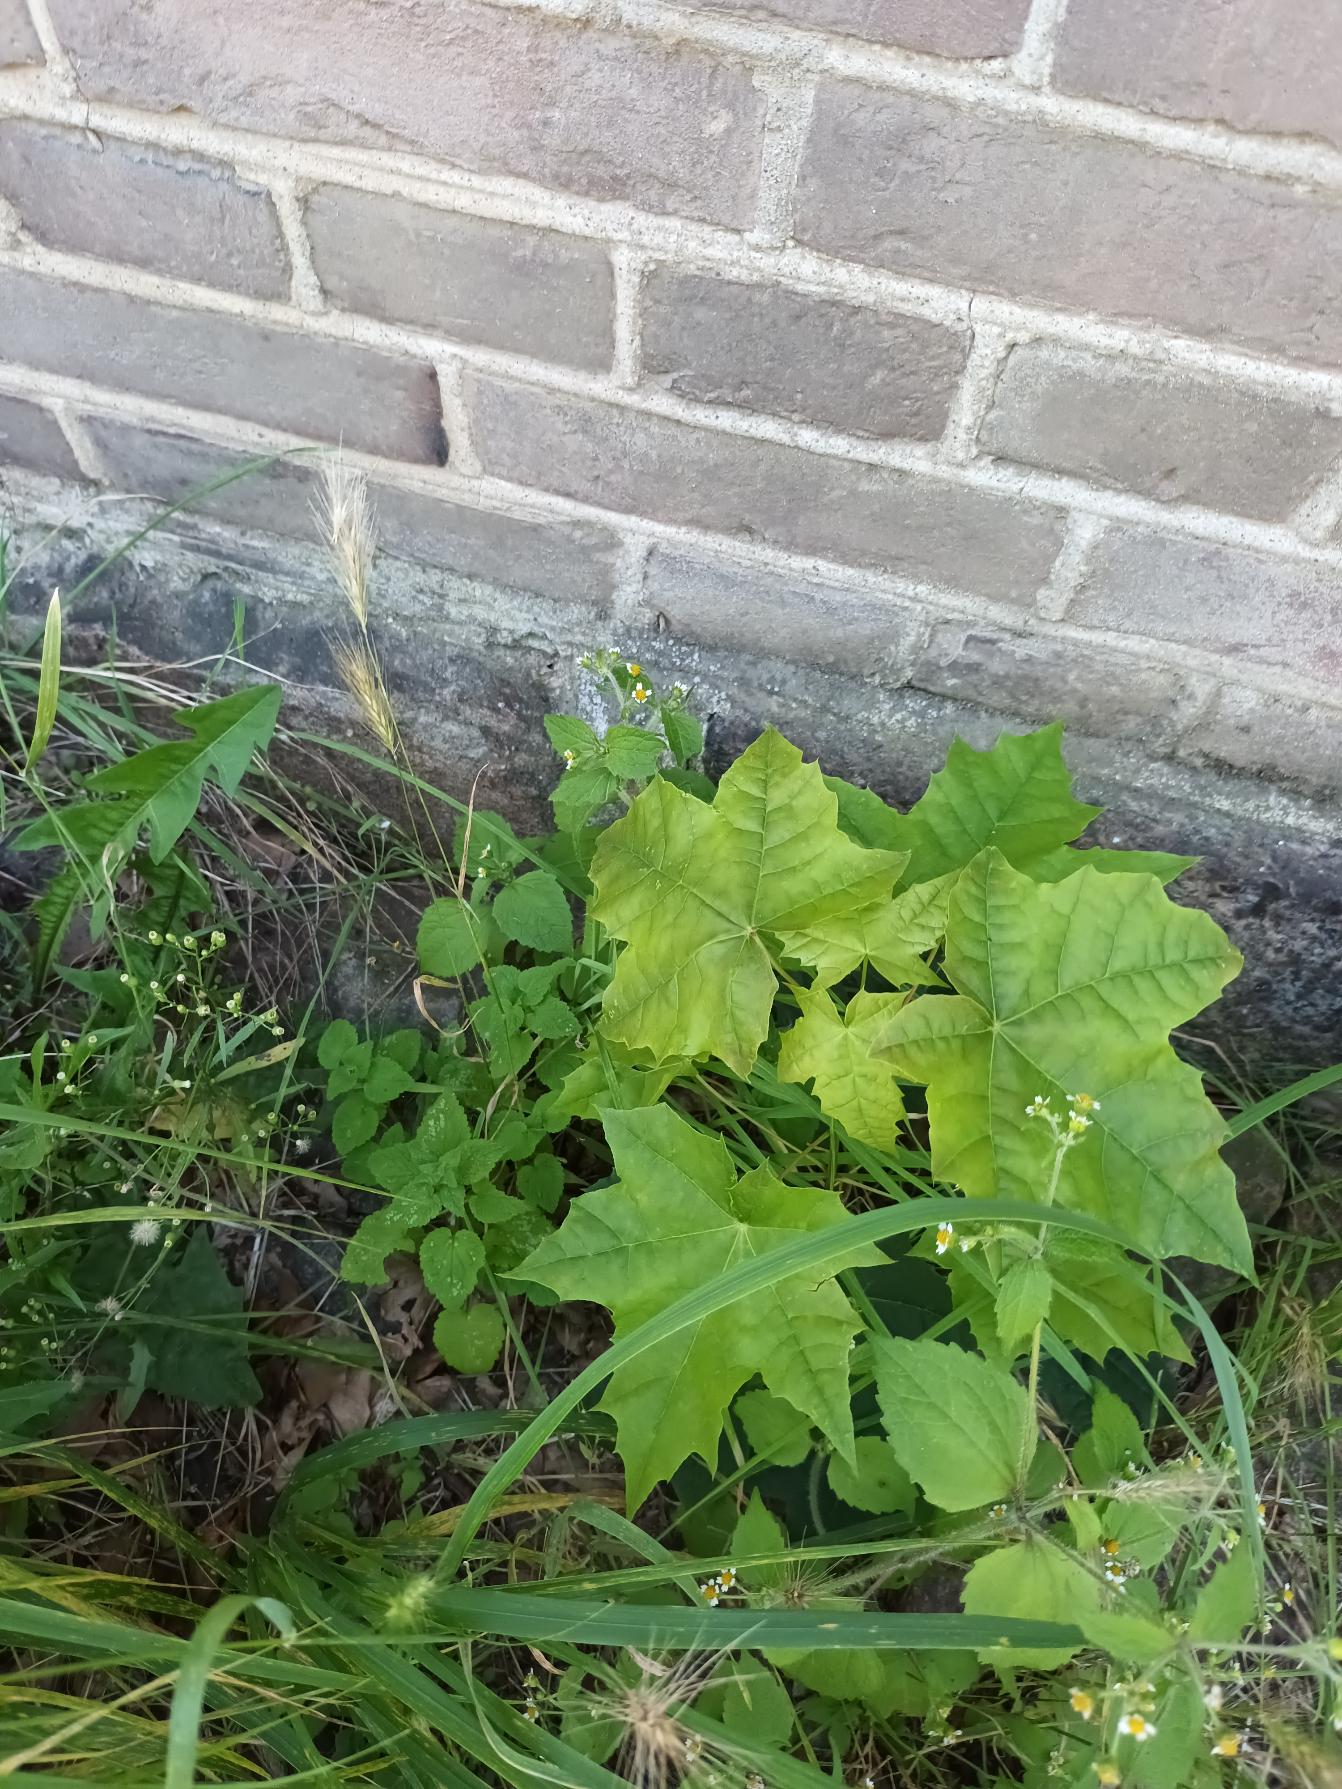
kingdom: Plantae
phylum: Tracheophyta
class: Magnoliopsida
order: Sapindales
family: Sapindaceae
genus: Acer
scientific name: Acer platanoides
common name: Spids-løn
